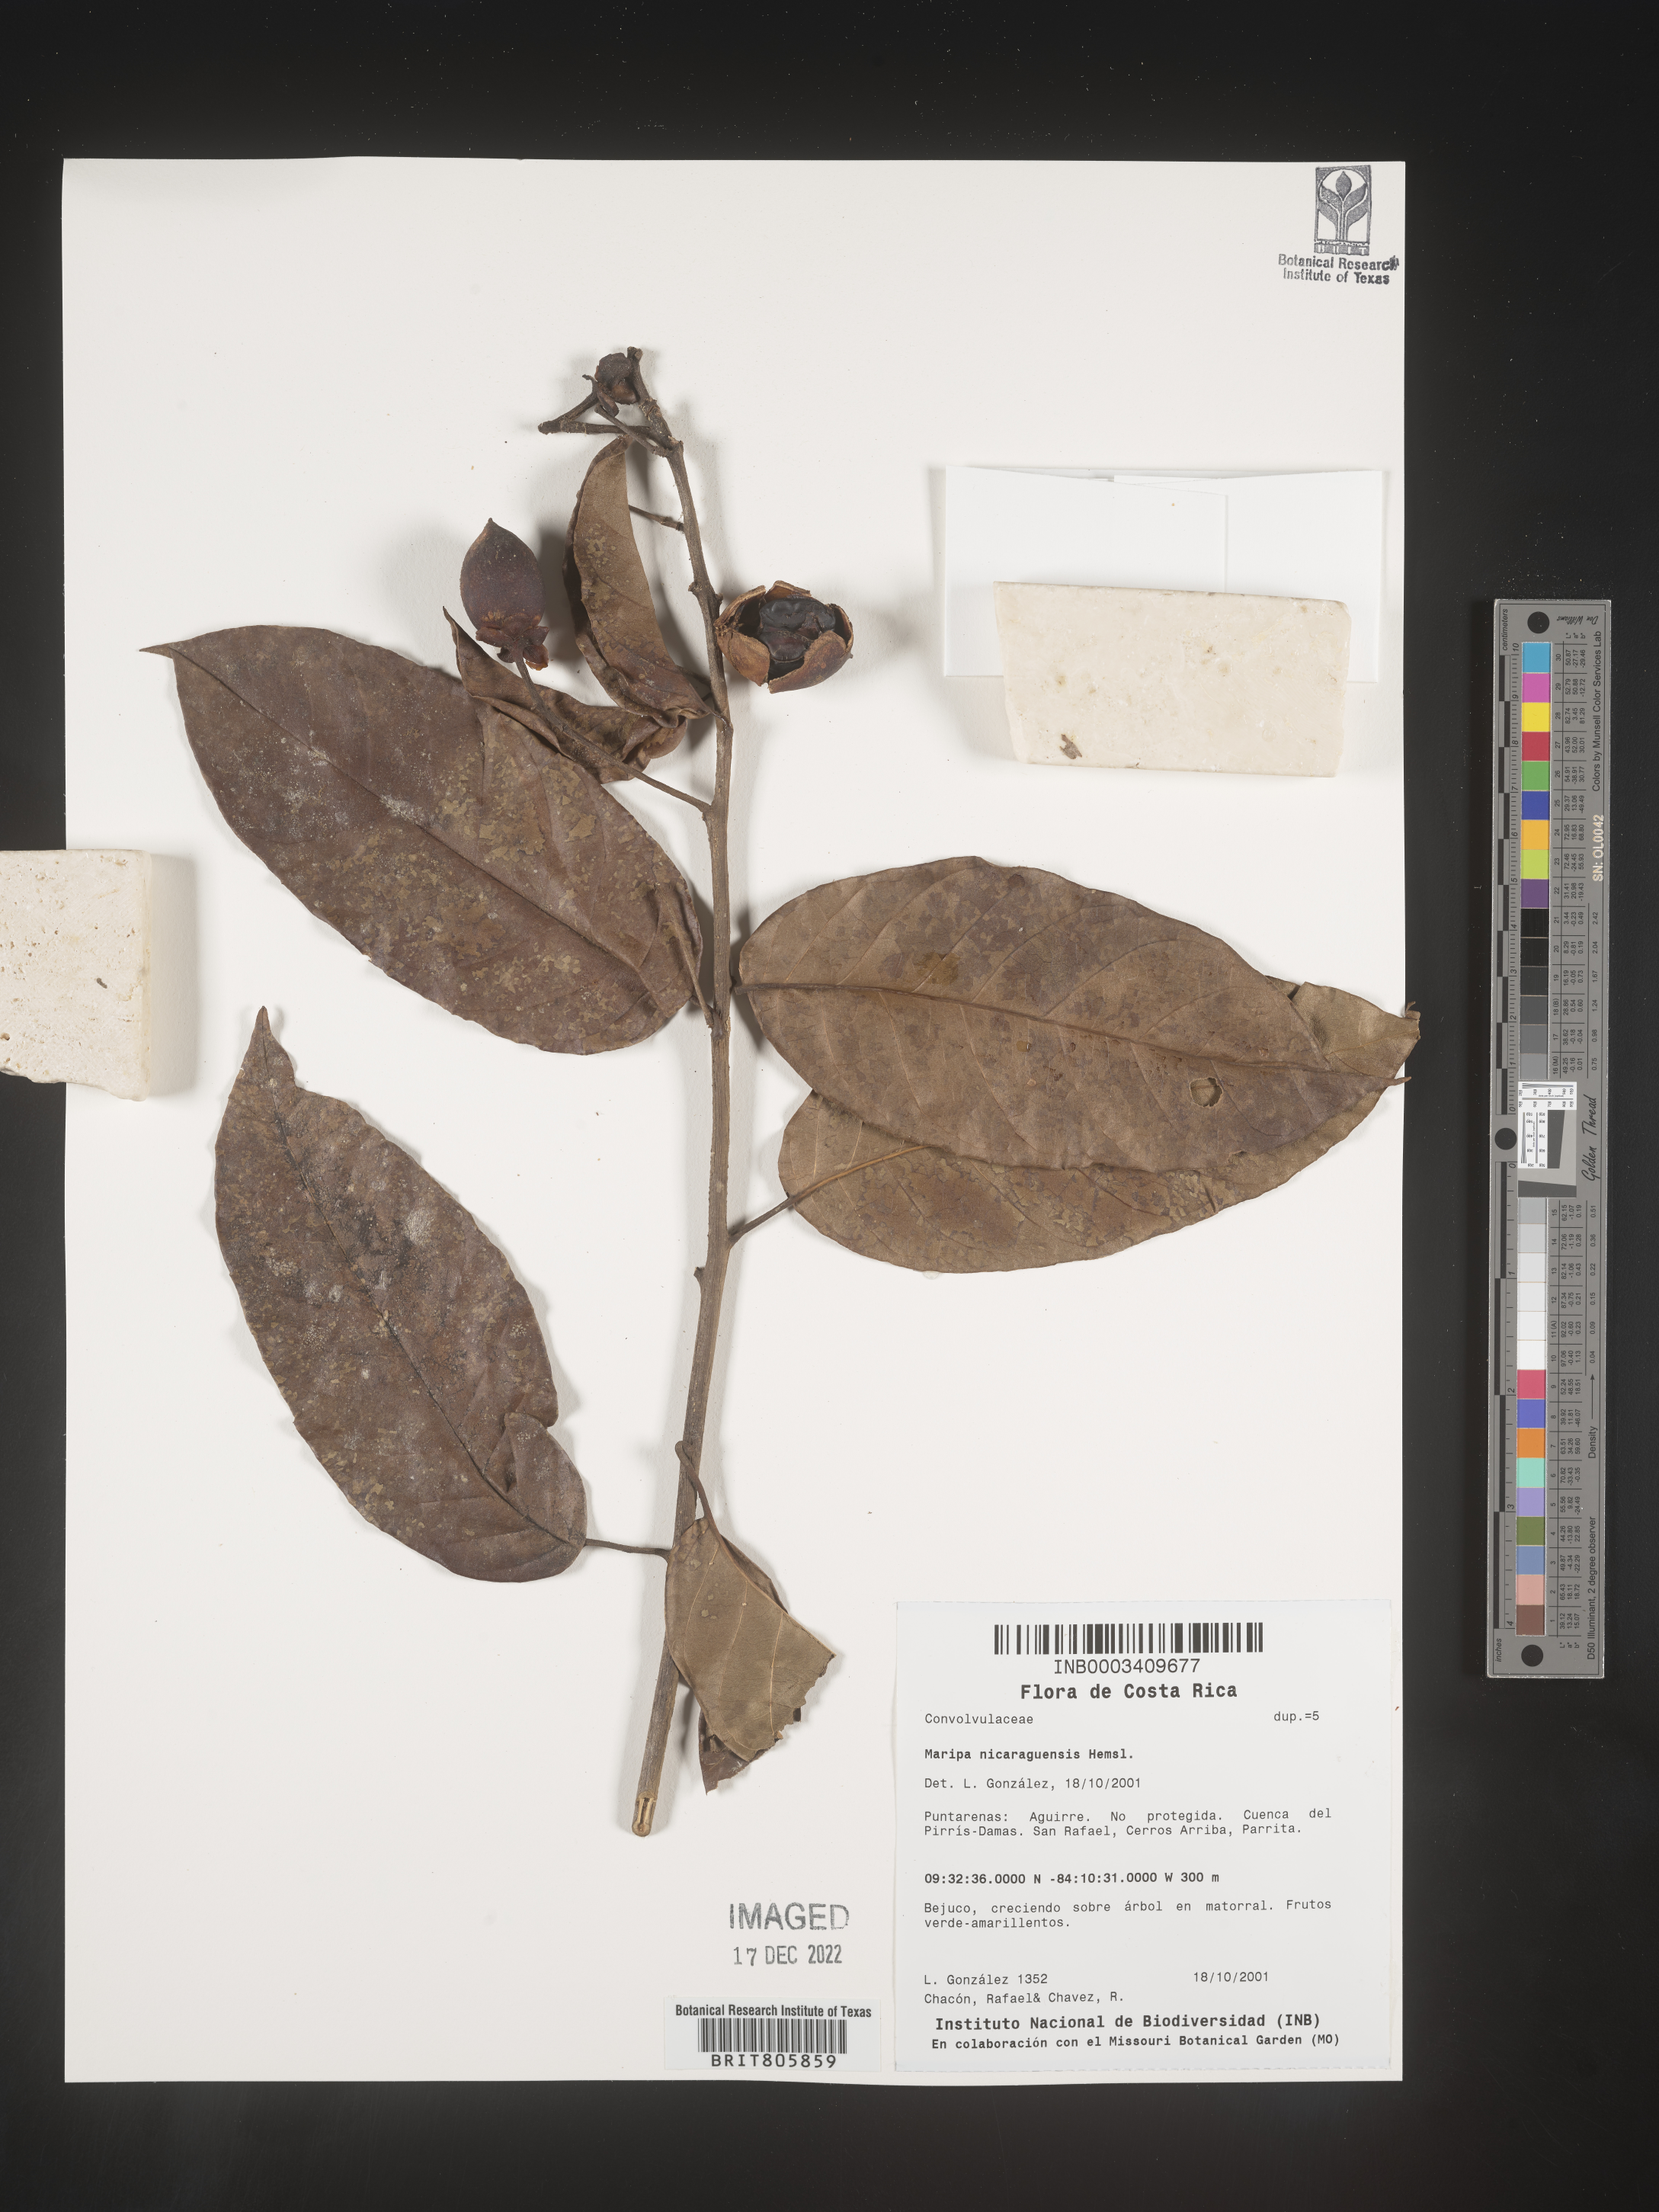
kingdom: Plantae
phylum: Tracheophyta
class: Magnoliopsida
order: Solanales
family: Convolvulaceae
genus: Maripa
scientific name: Maripa
